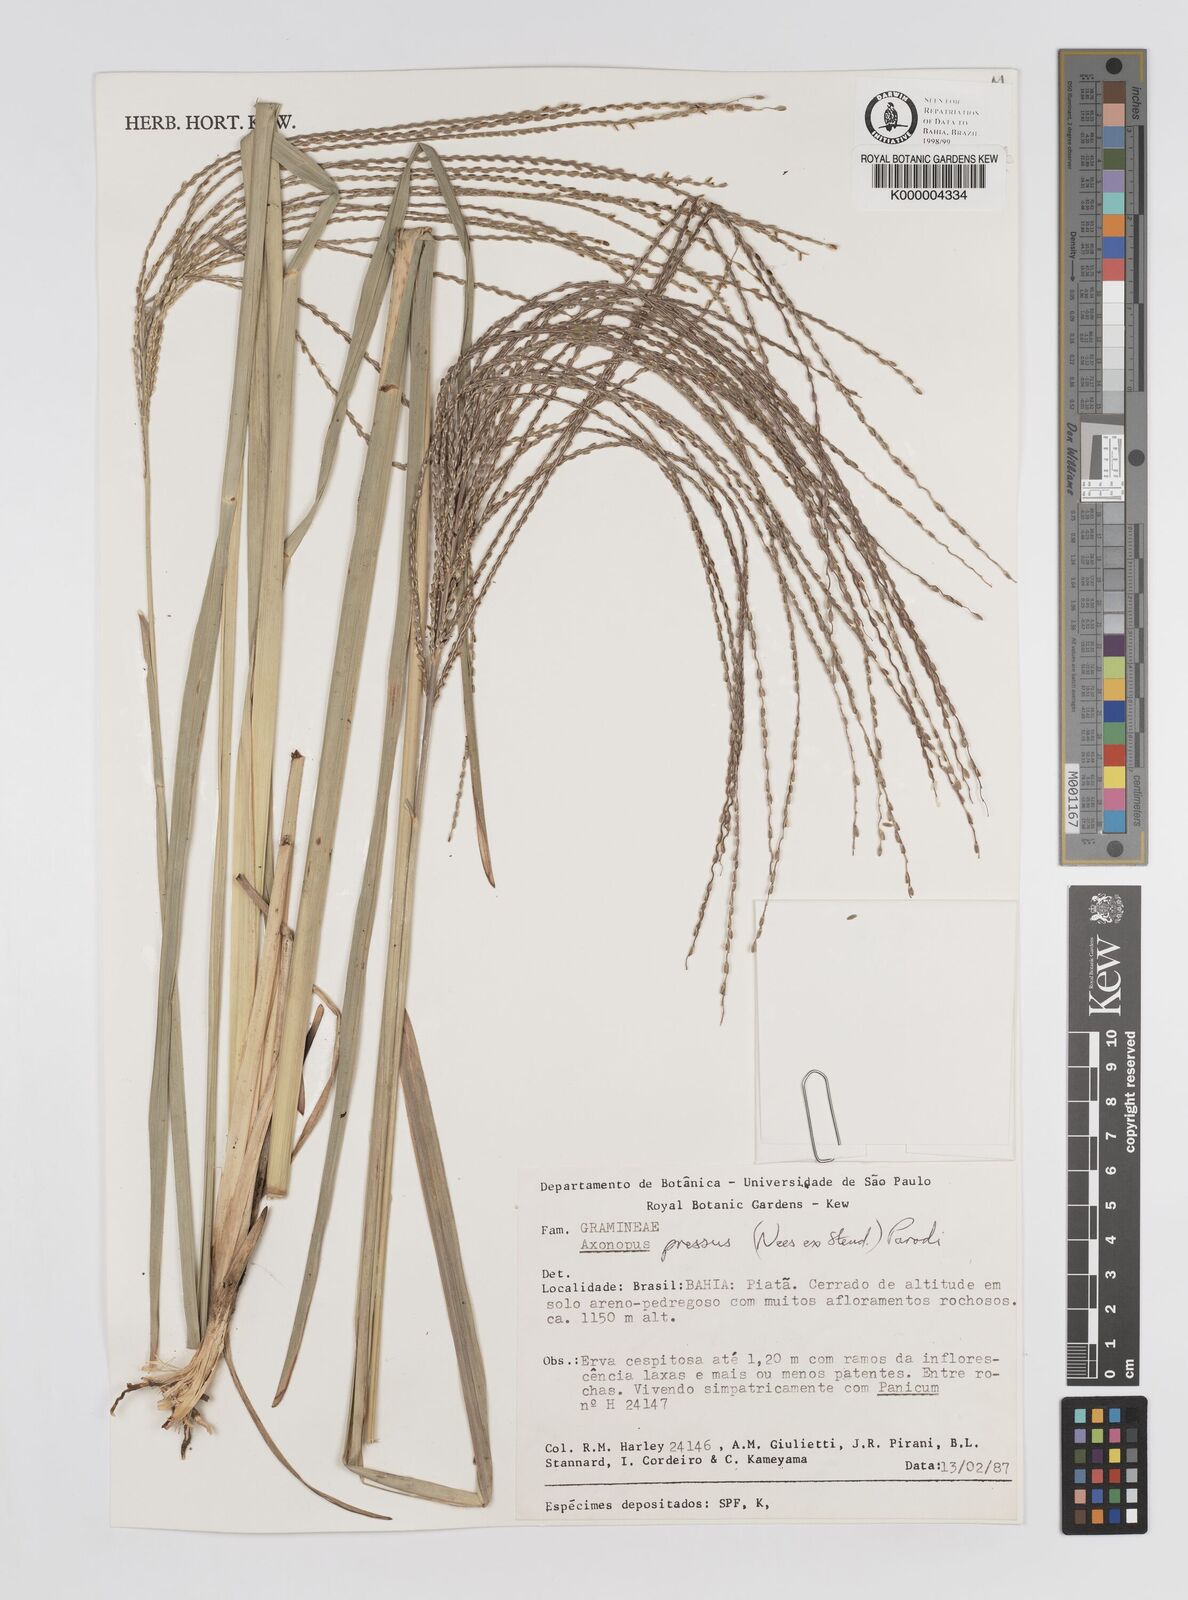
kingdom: Plantae
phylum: Tracheophyta
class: Liliopsida
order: Poales
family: Poaceae
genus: Axonopus
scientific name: Axonopus pressus
